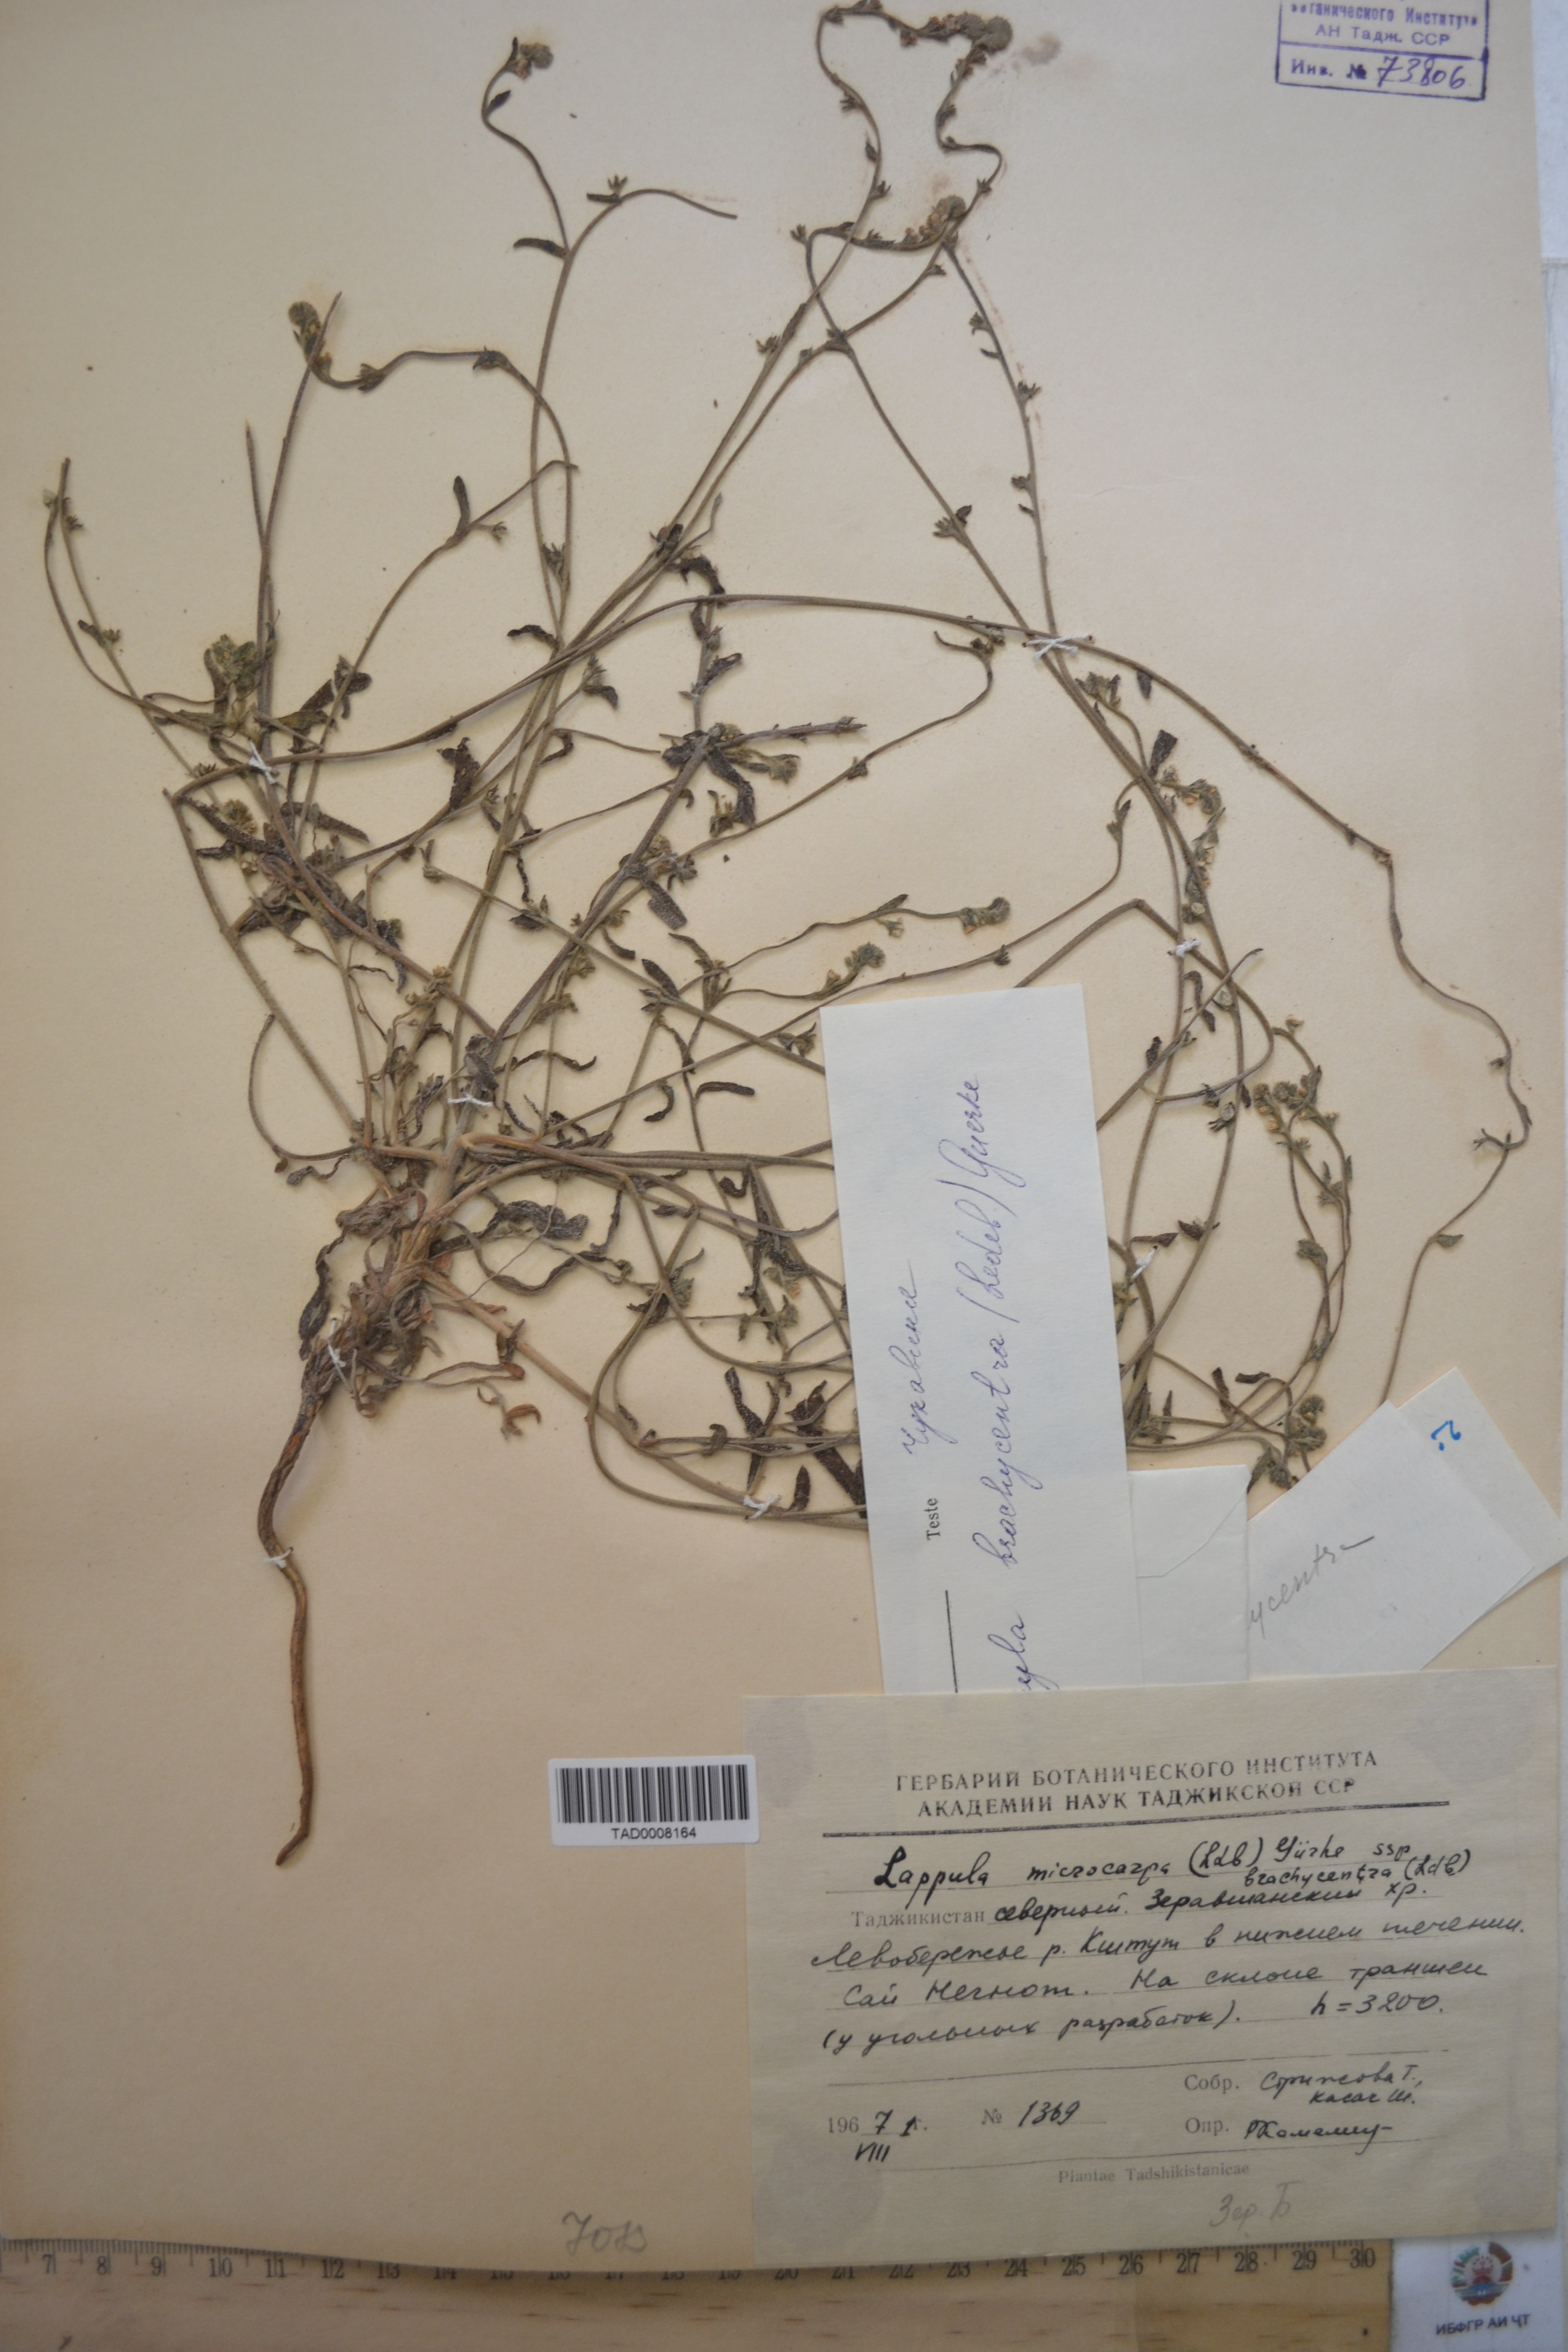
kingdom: Plantae
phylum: Tracheophyta
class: Magnoliopsida
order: Boraginales
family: Boraginaceae
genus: Lappula
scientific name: Lappula microcarpa
